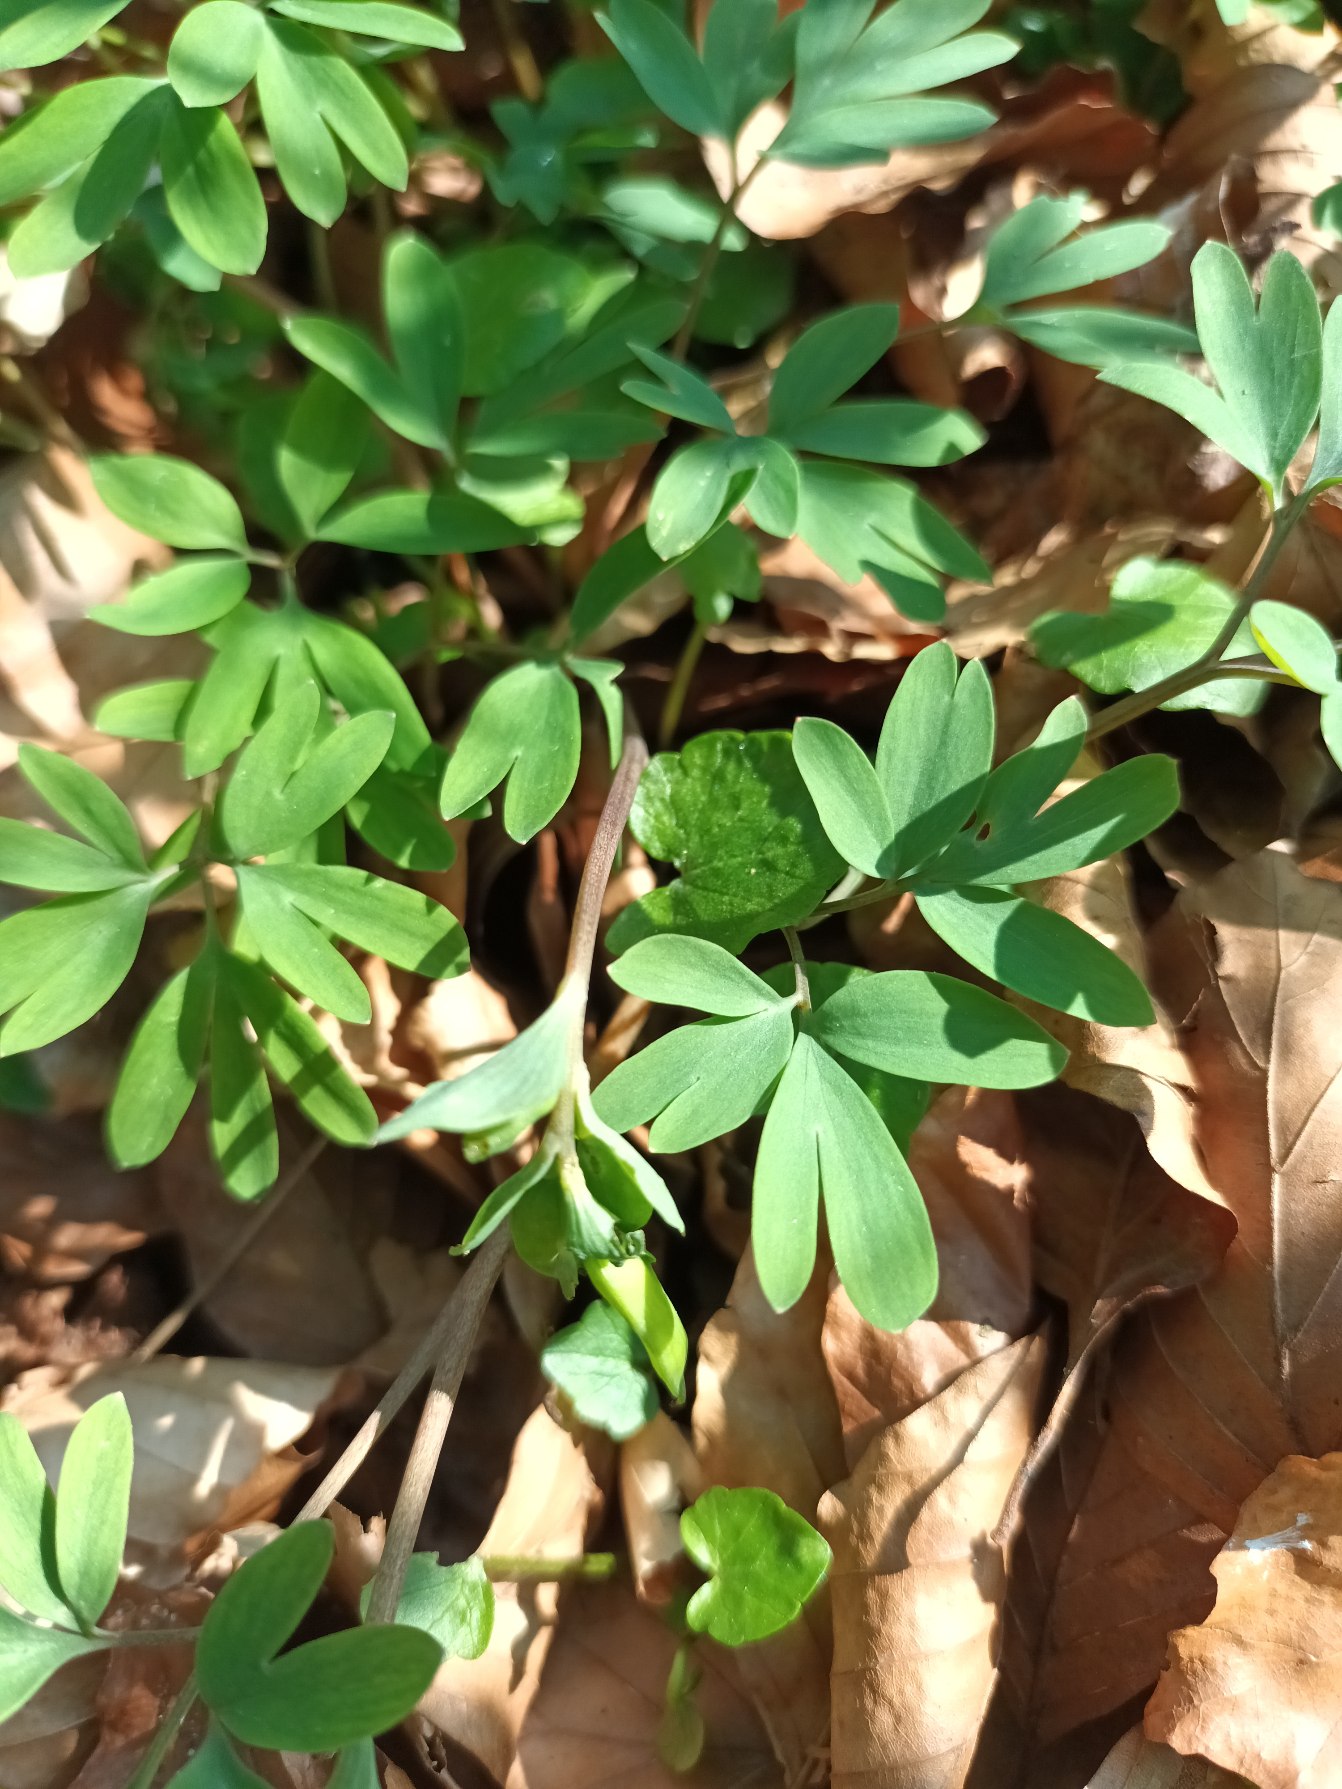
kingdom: Plantae
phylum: Tracheophyta
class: Magnoliopsida
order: Ranunculales
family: Papaveraceae
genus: Corydalis
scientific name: Corydalis intermedia
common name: Liden lærkespore
